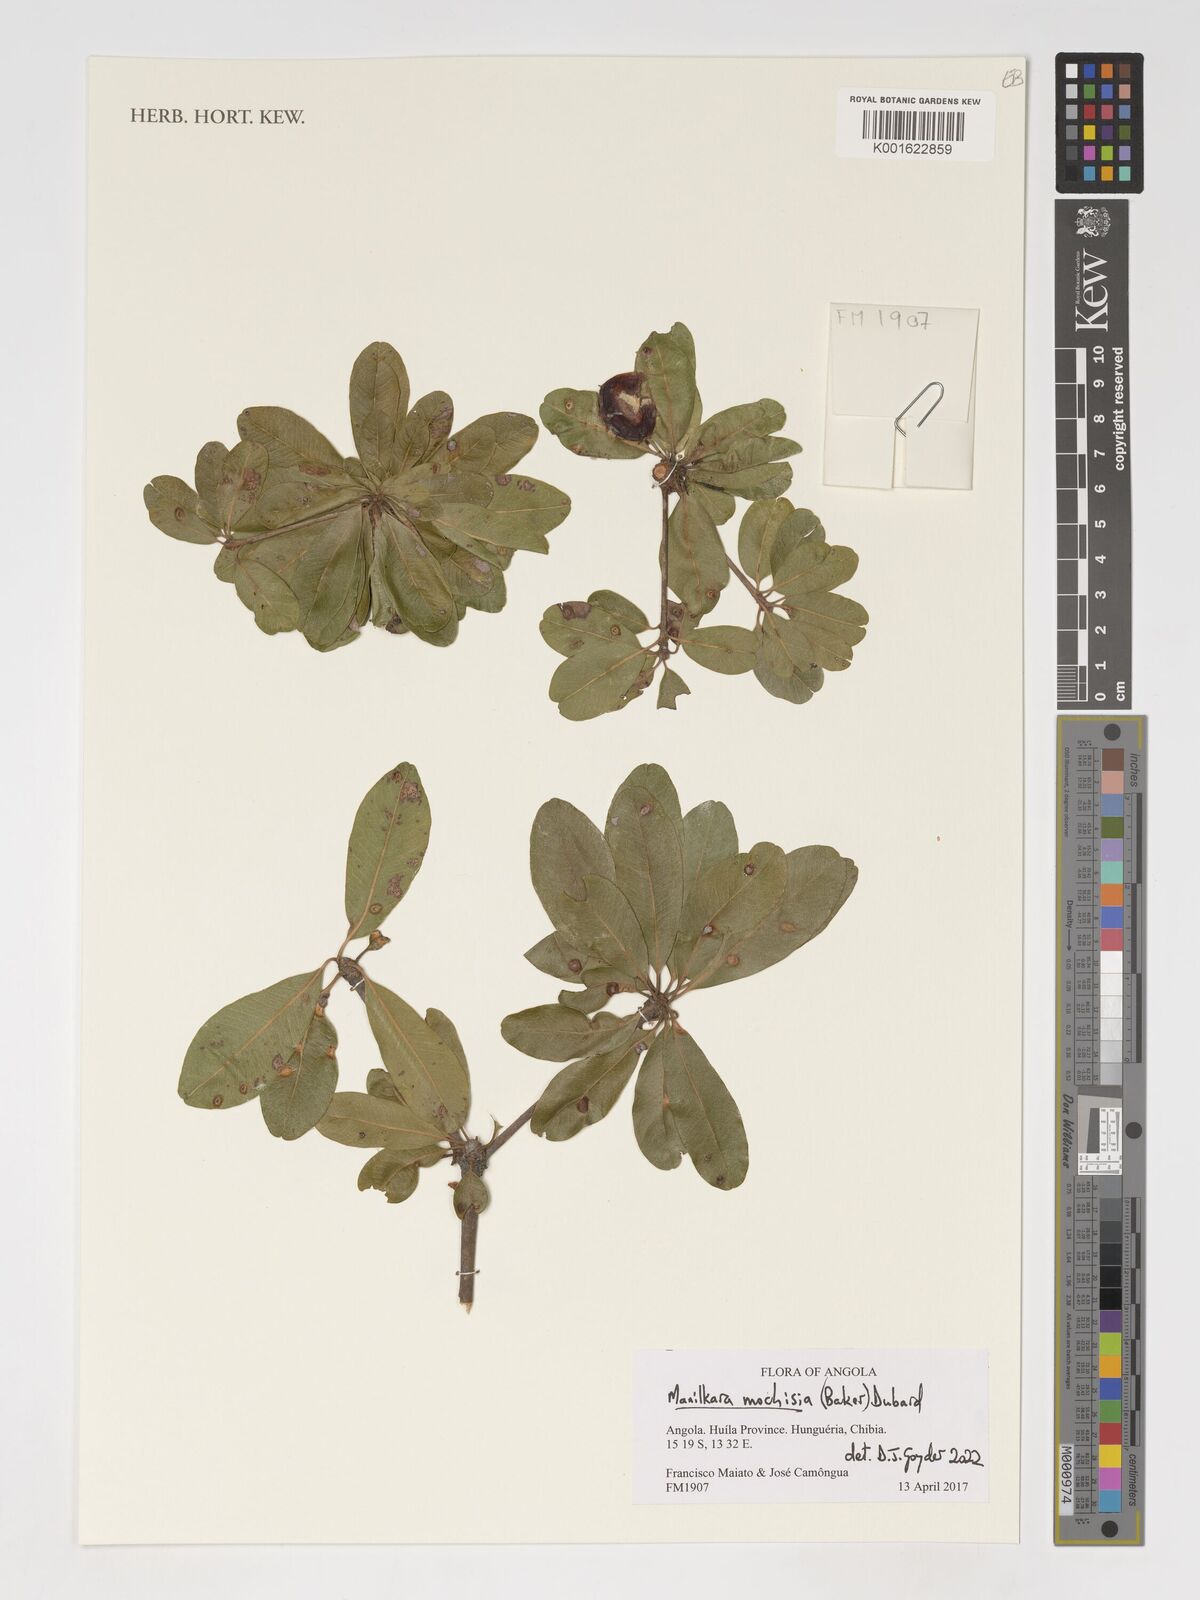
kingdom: Plantae
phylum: Tracheophyta
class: Magnoliopsida
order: Ericales
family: Sapotaceae
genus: Manilkara
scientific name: Manilkara mochisia
